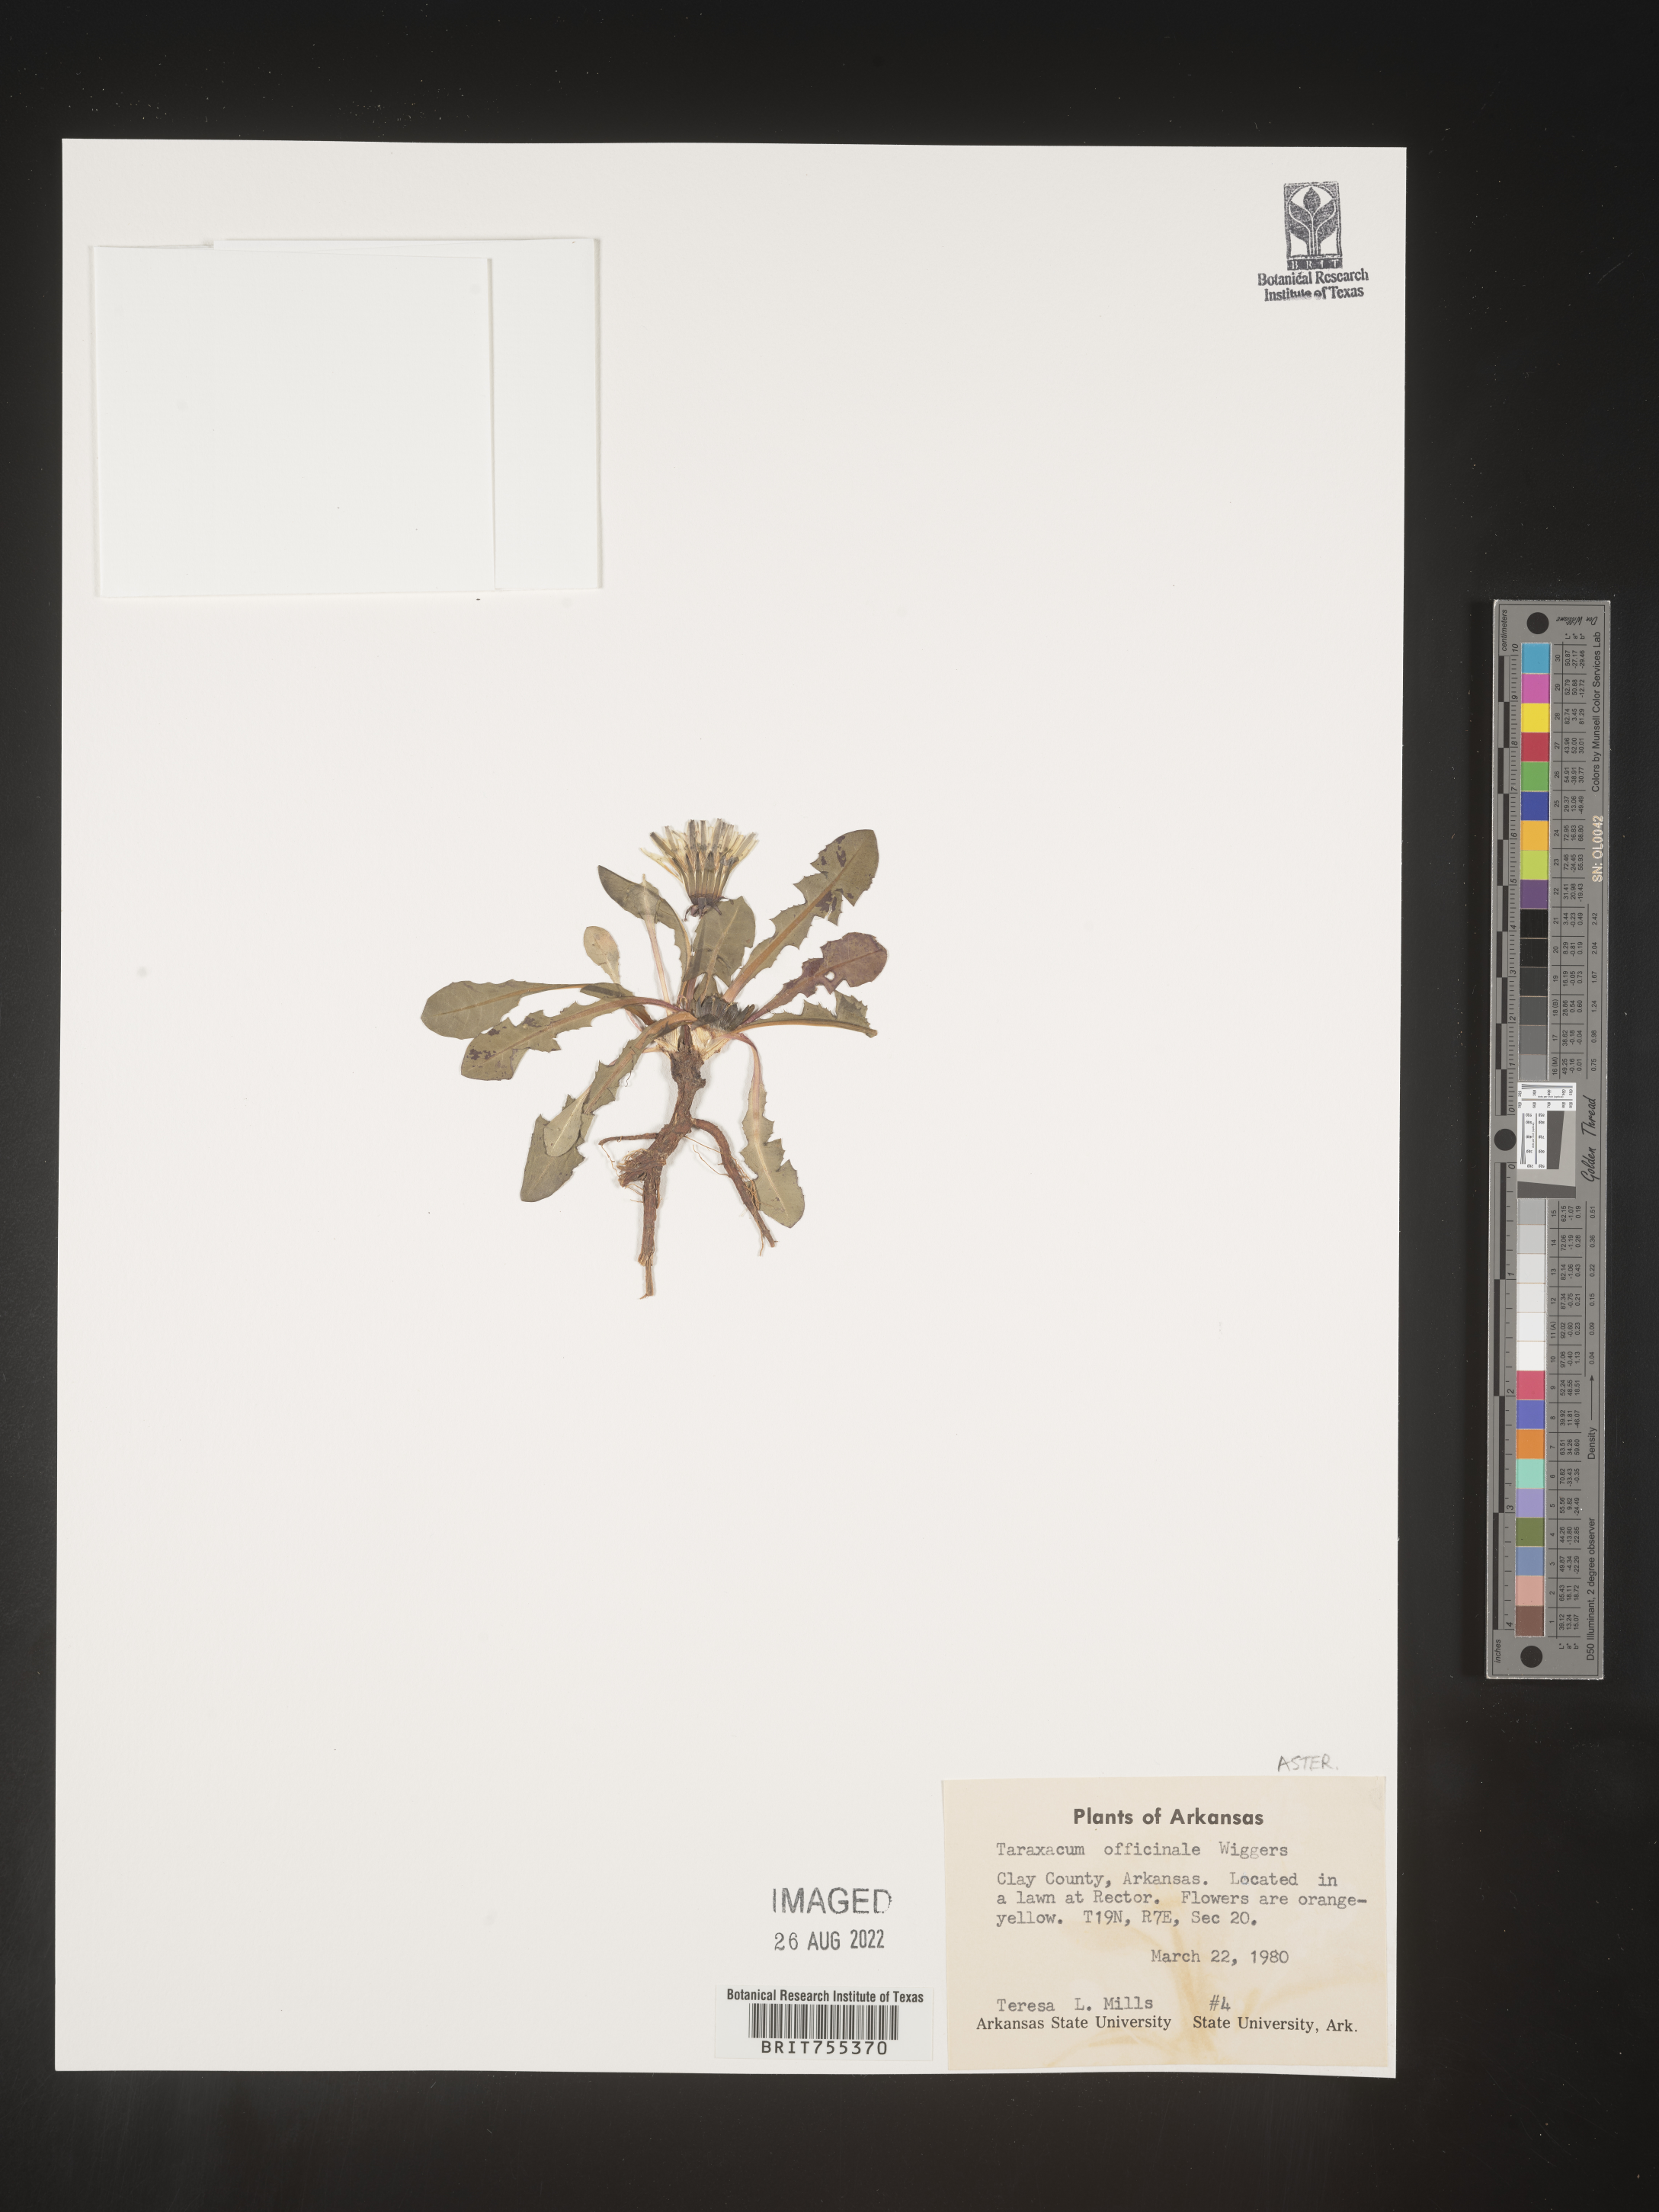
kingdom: Plantae
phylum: Tracheophyta
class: Magnoliopsida
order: Asterales
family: Asteraceae
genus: Taraxacum
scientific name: Taraxacum officinale
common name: Common dandelion
